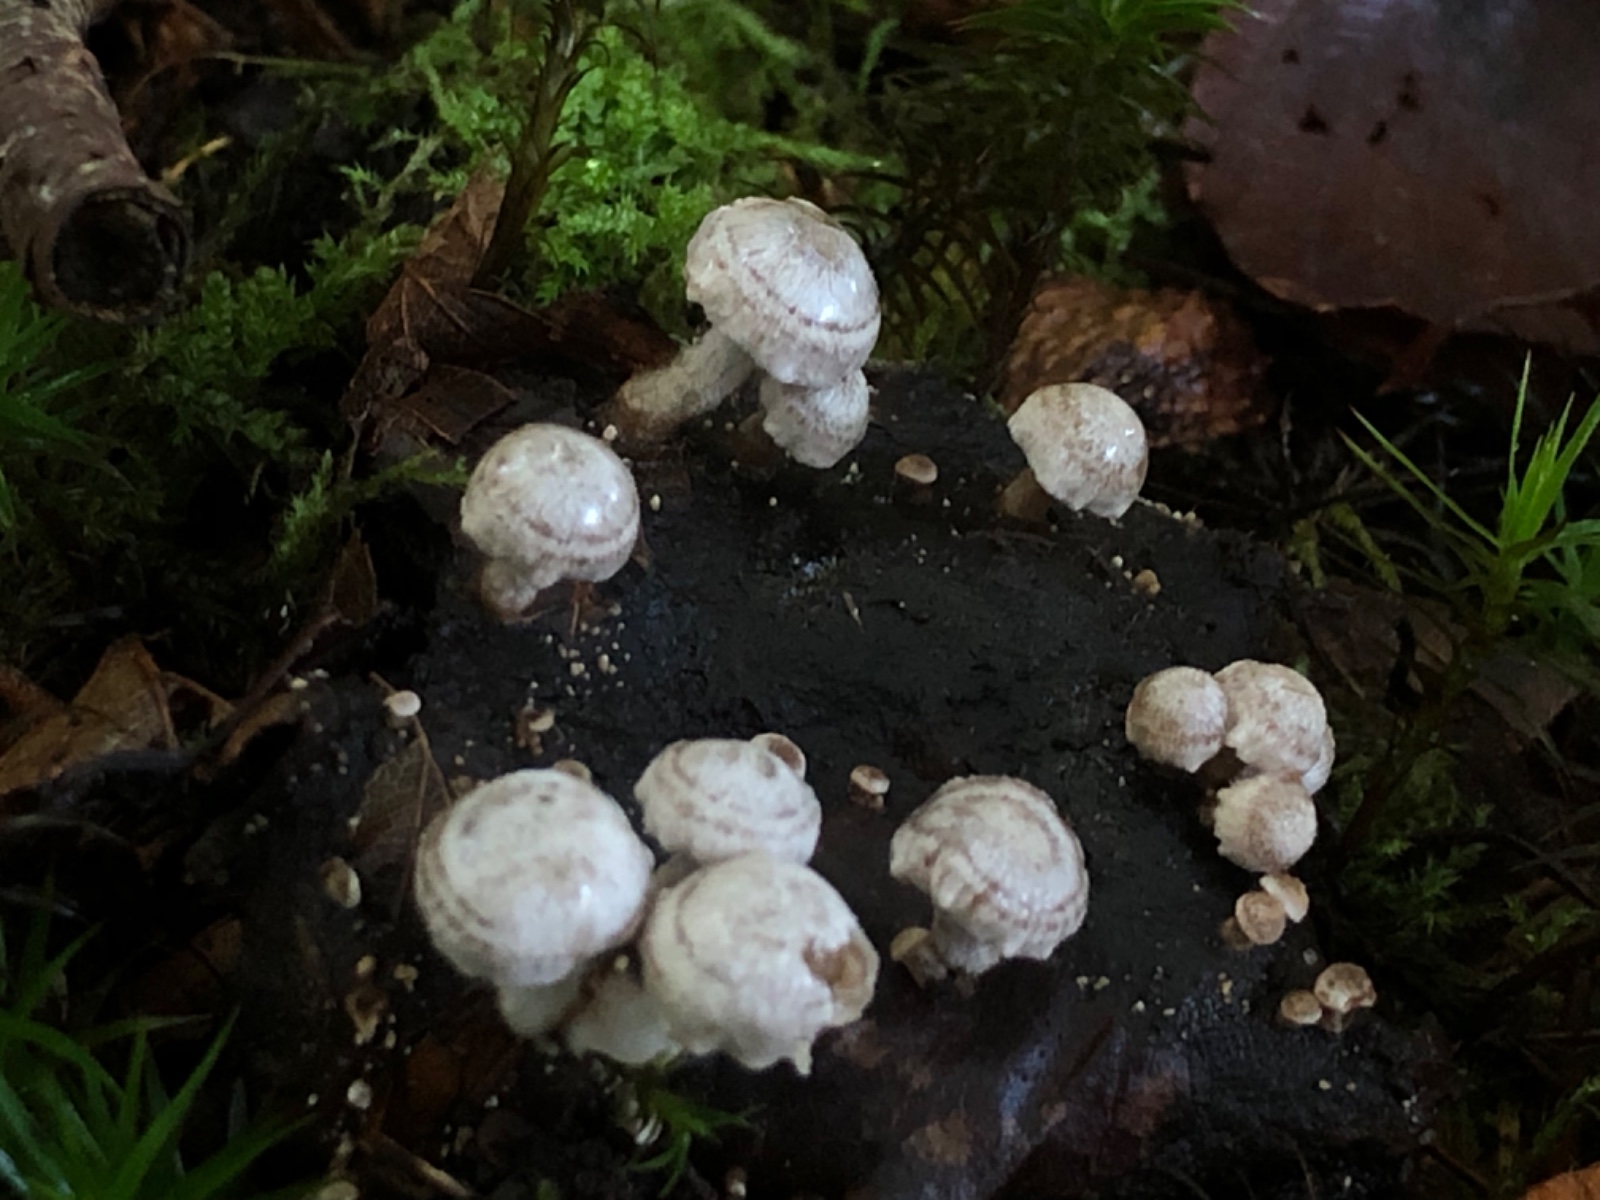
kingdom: Fungi
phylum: Basidiomycota
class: Agaricomycetes
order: Agaricales
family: Lyophyllaceae
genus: Asterophora
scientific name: Asterophora parasitica
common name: grå snyltehat
